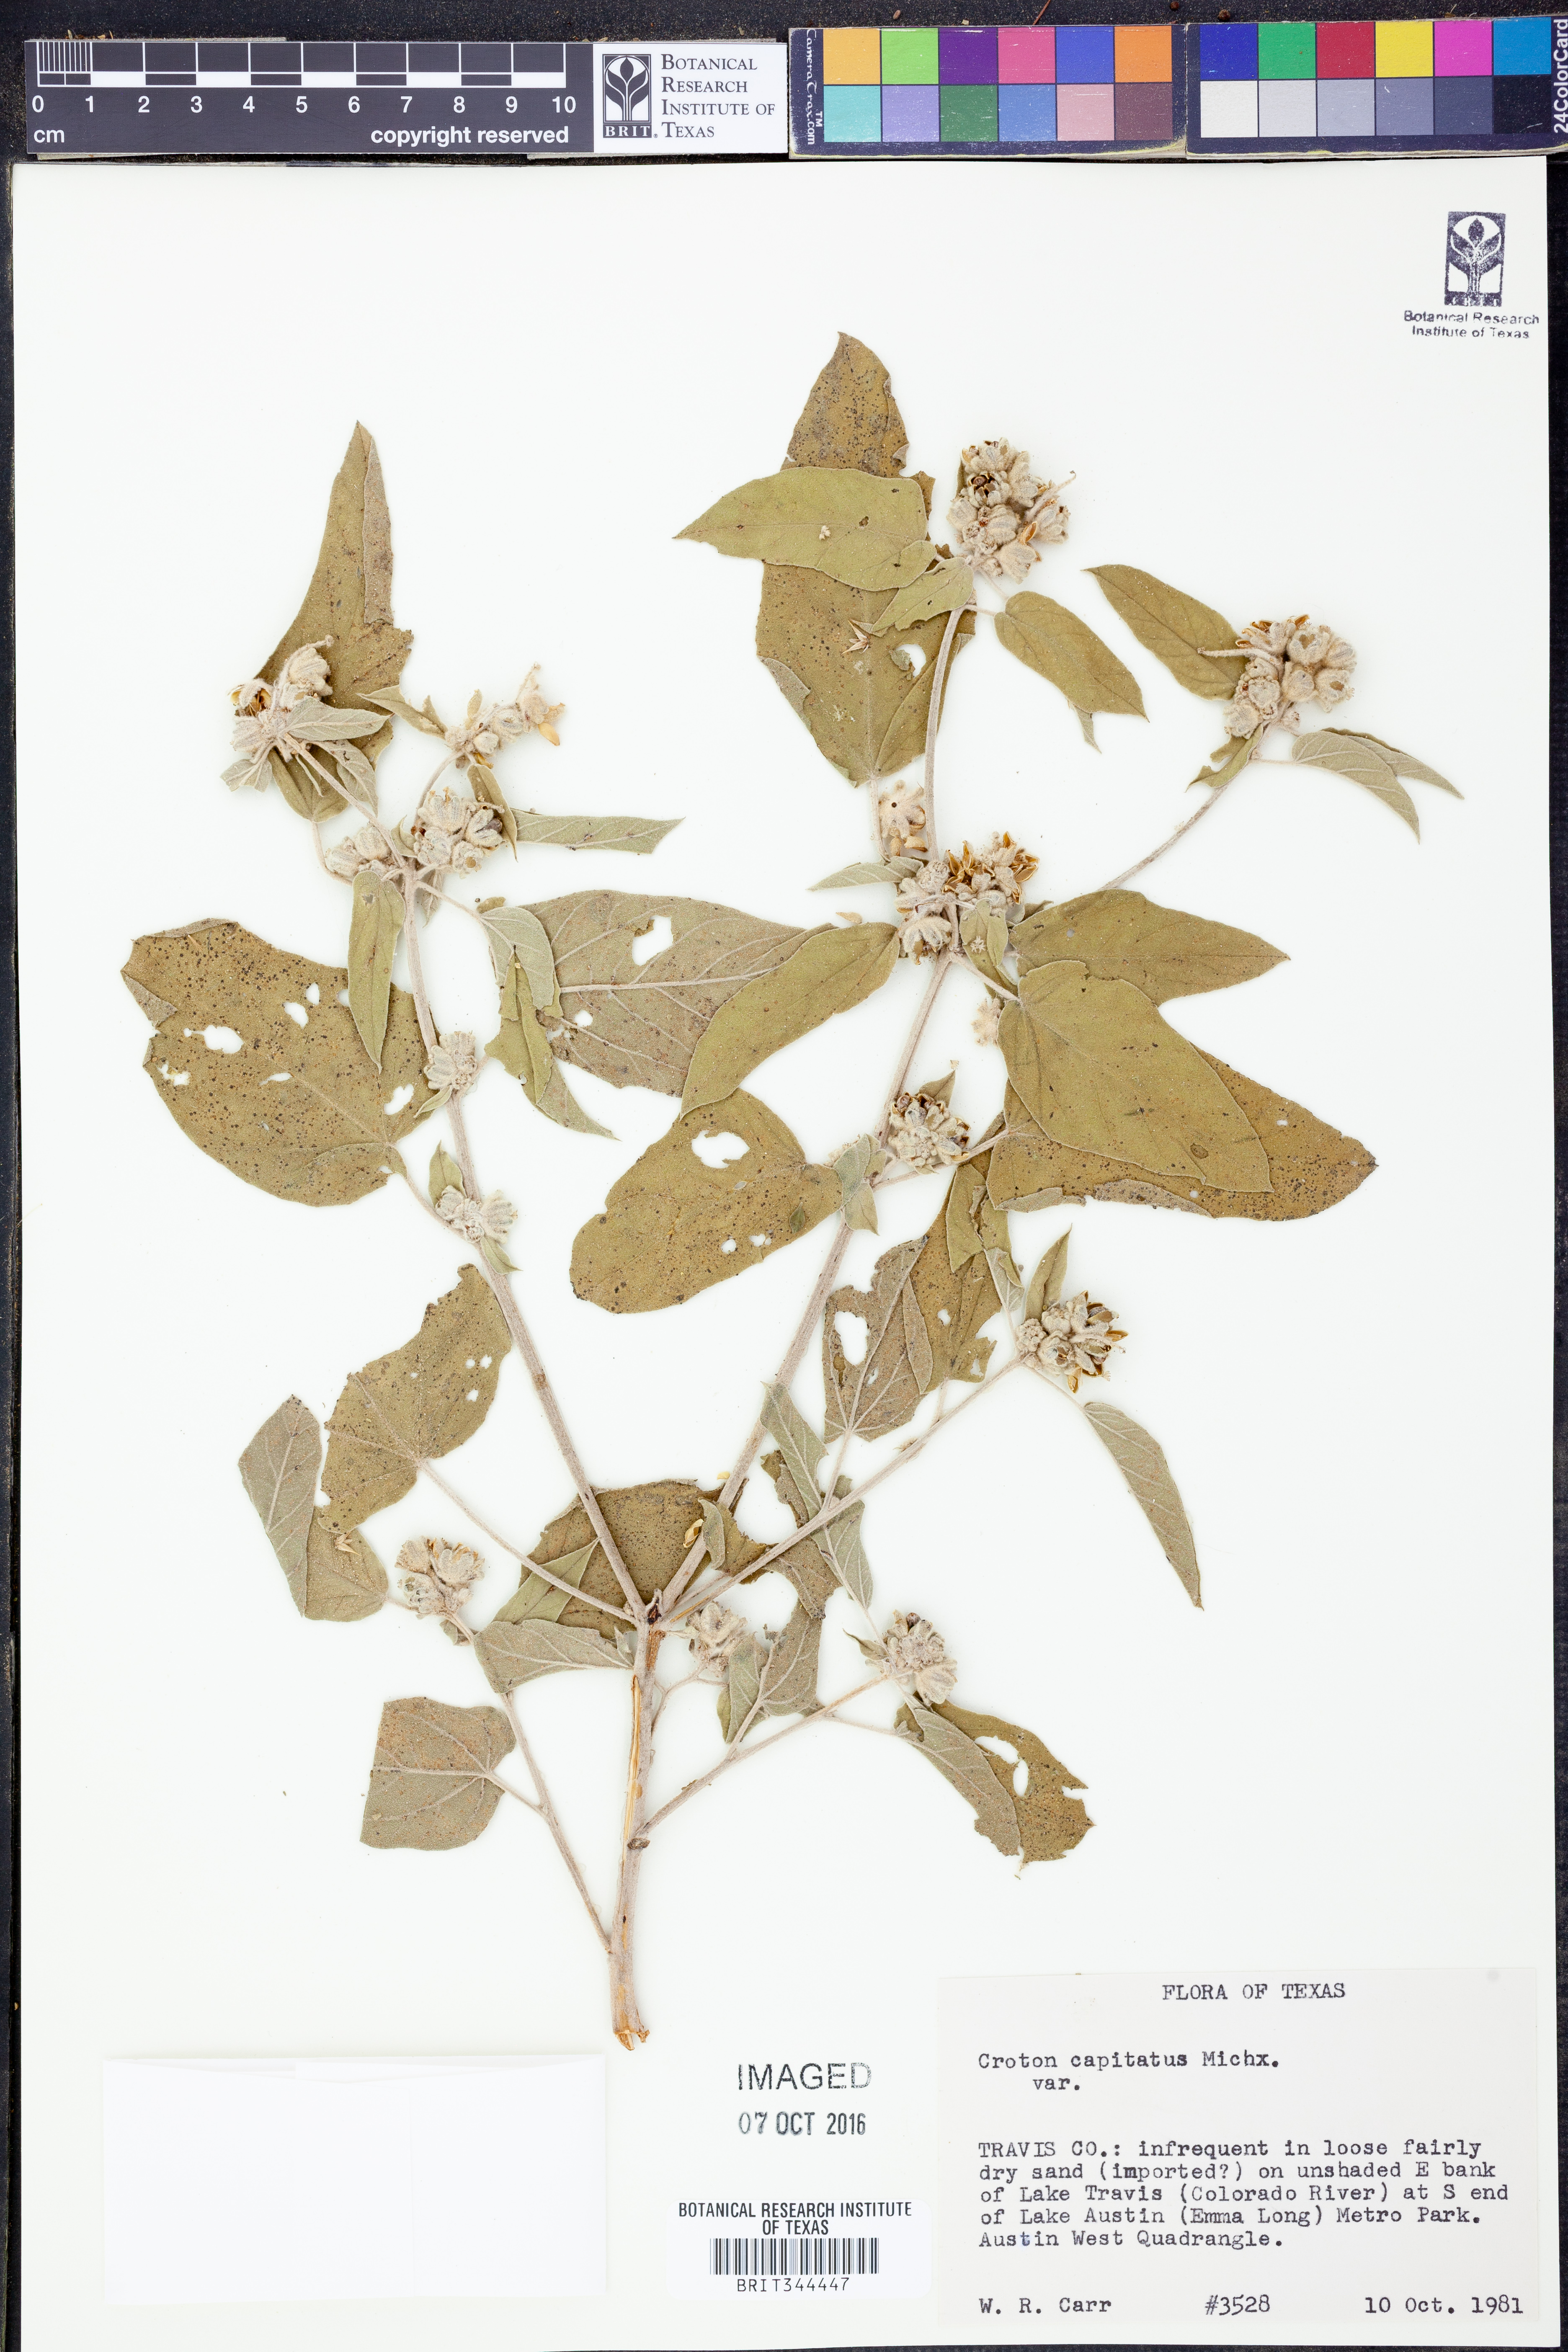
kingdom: Plantae
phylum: Tracheophyta
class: Magnoliopsida
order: Malpighiales
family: Euphorbiaceae
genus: Croton
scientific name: Croton capitatus
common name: Woolly croton
